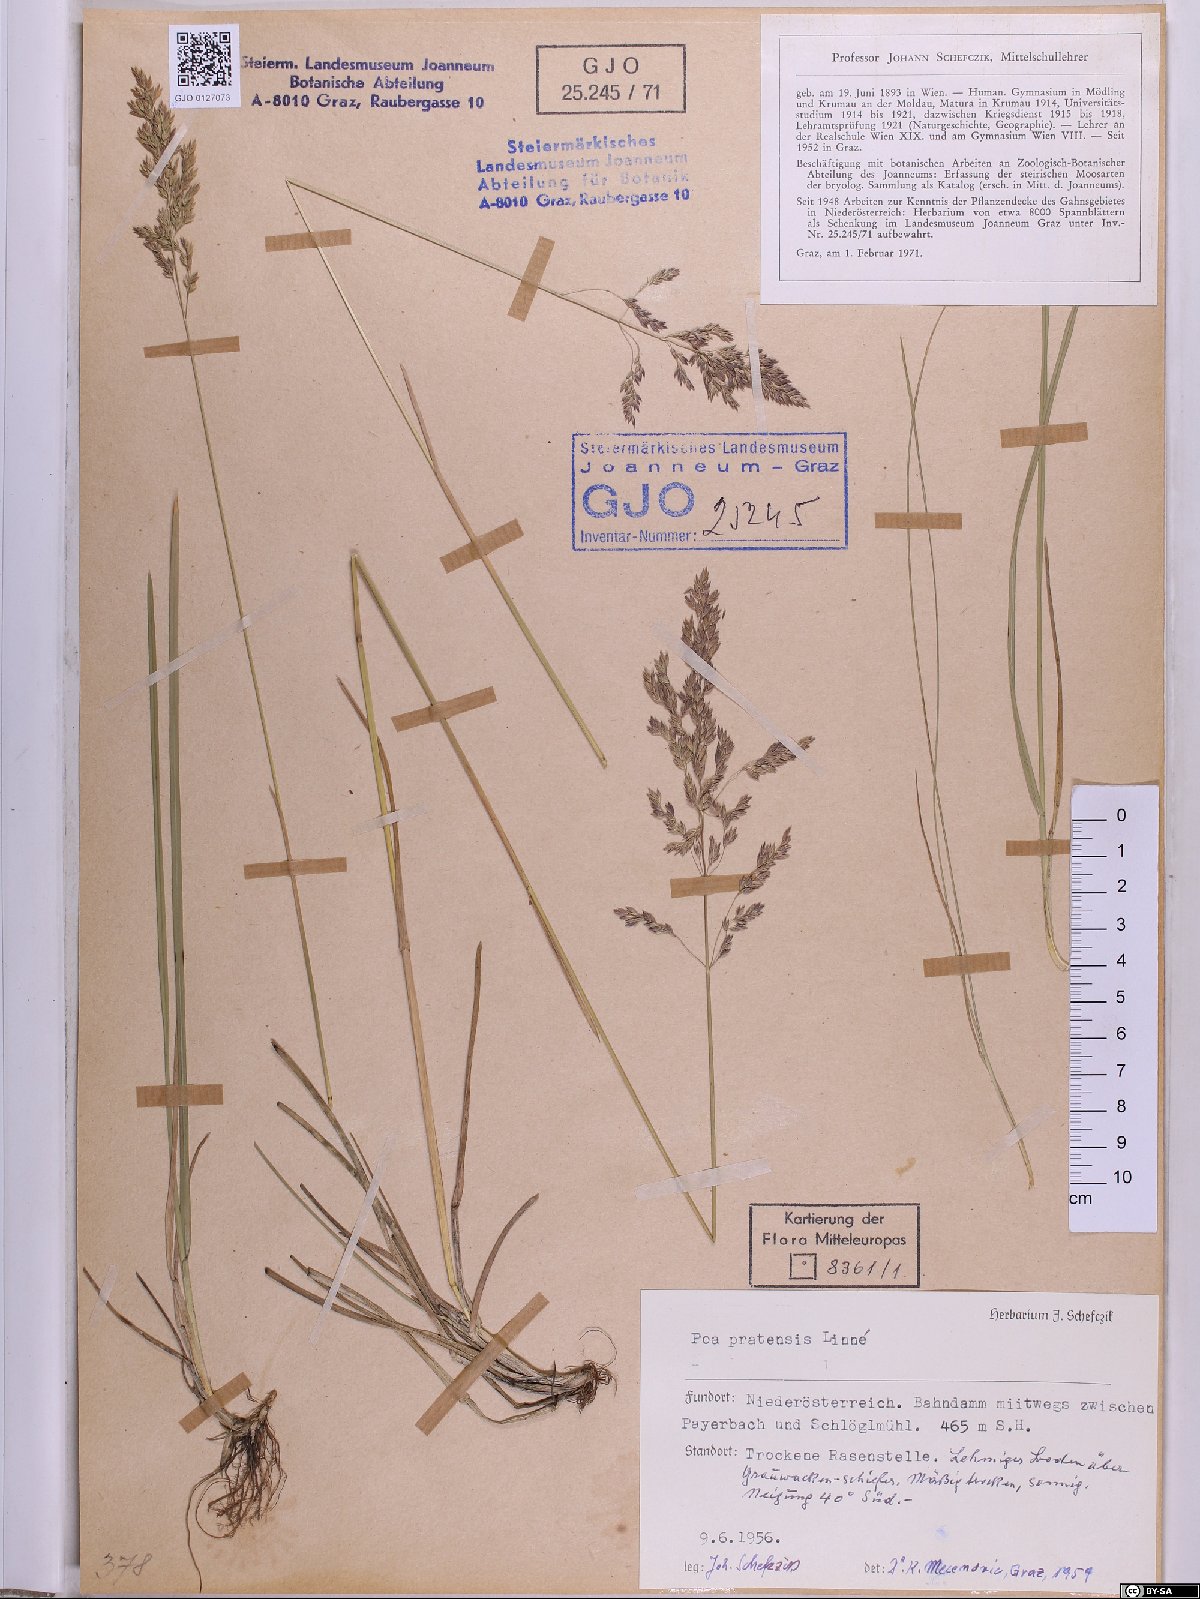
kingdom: Plantae
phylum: Tracheophyta
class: Liliopsida
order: Poales
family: Poaceae
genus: Poa
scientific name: Poa pratensis
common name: Kentucky bluegrass
